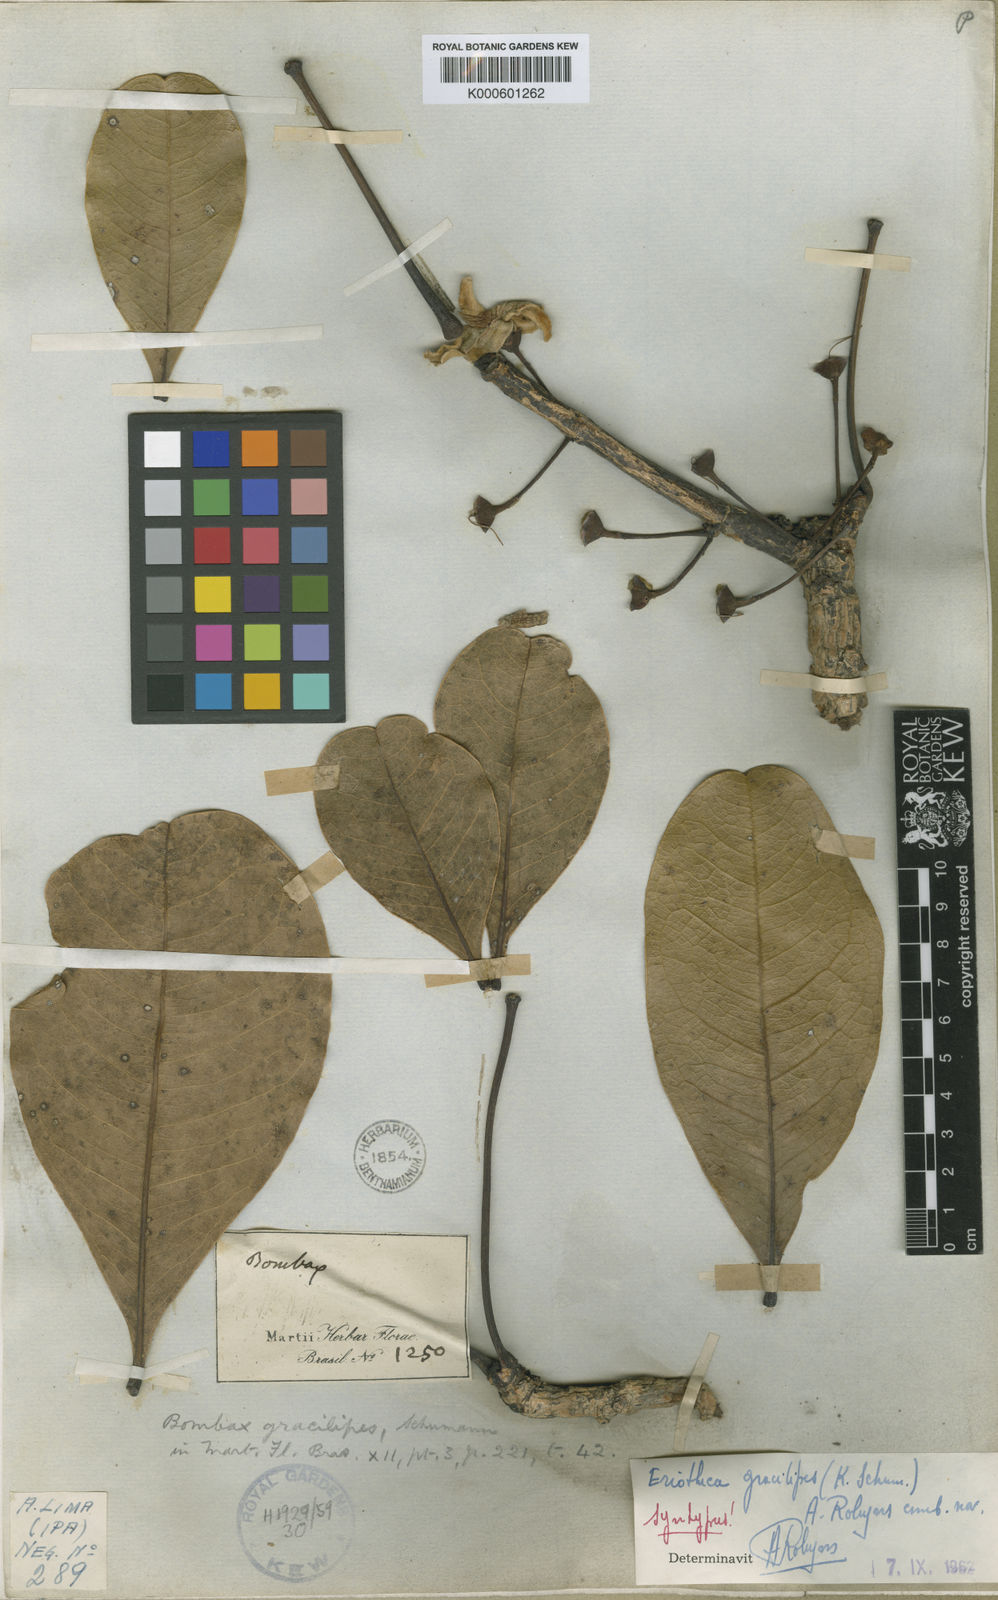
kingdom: Plantae
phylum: Tracheophyta
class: Magnoliopsida
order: Malvales
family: Malvaceae
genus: Eriotheca
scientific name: Eriotheca gracilipes
